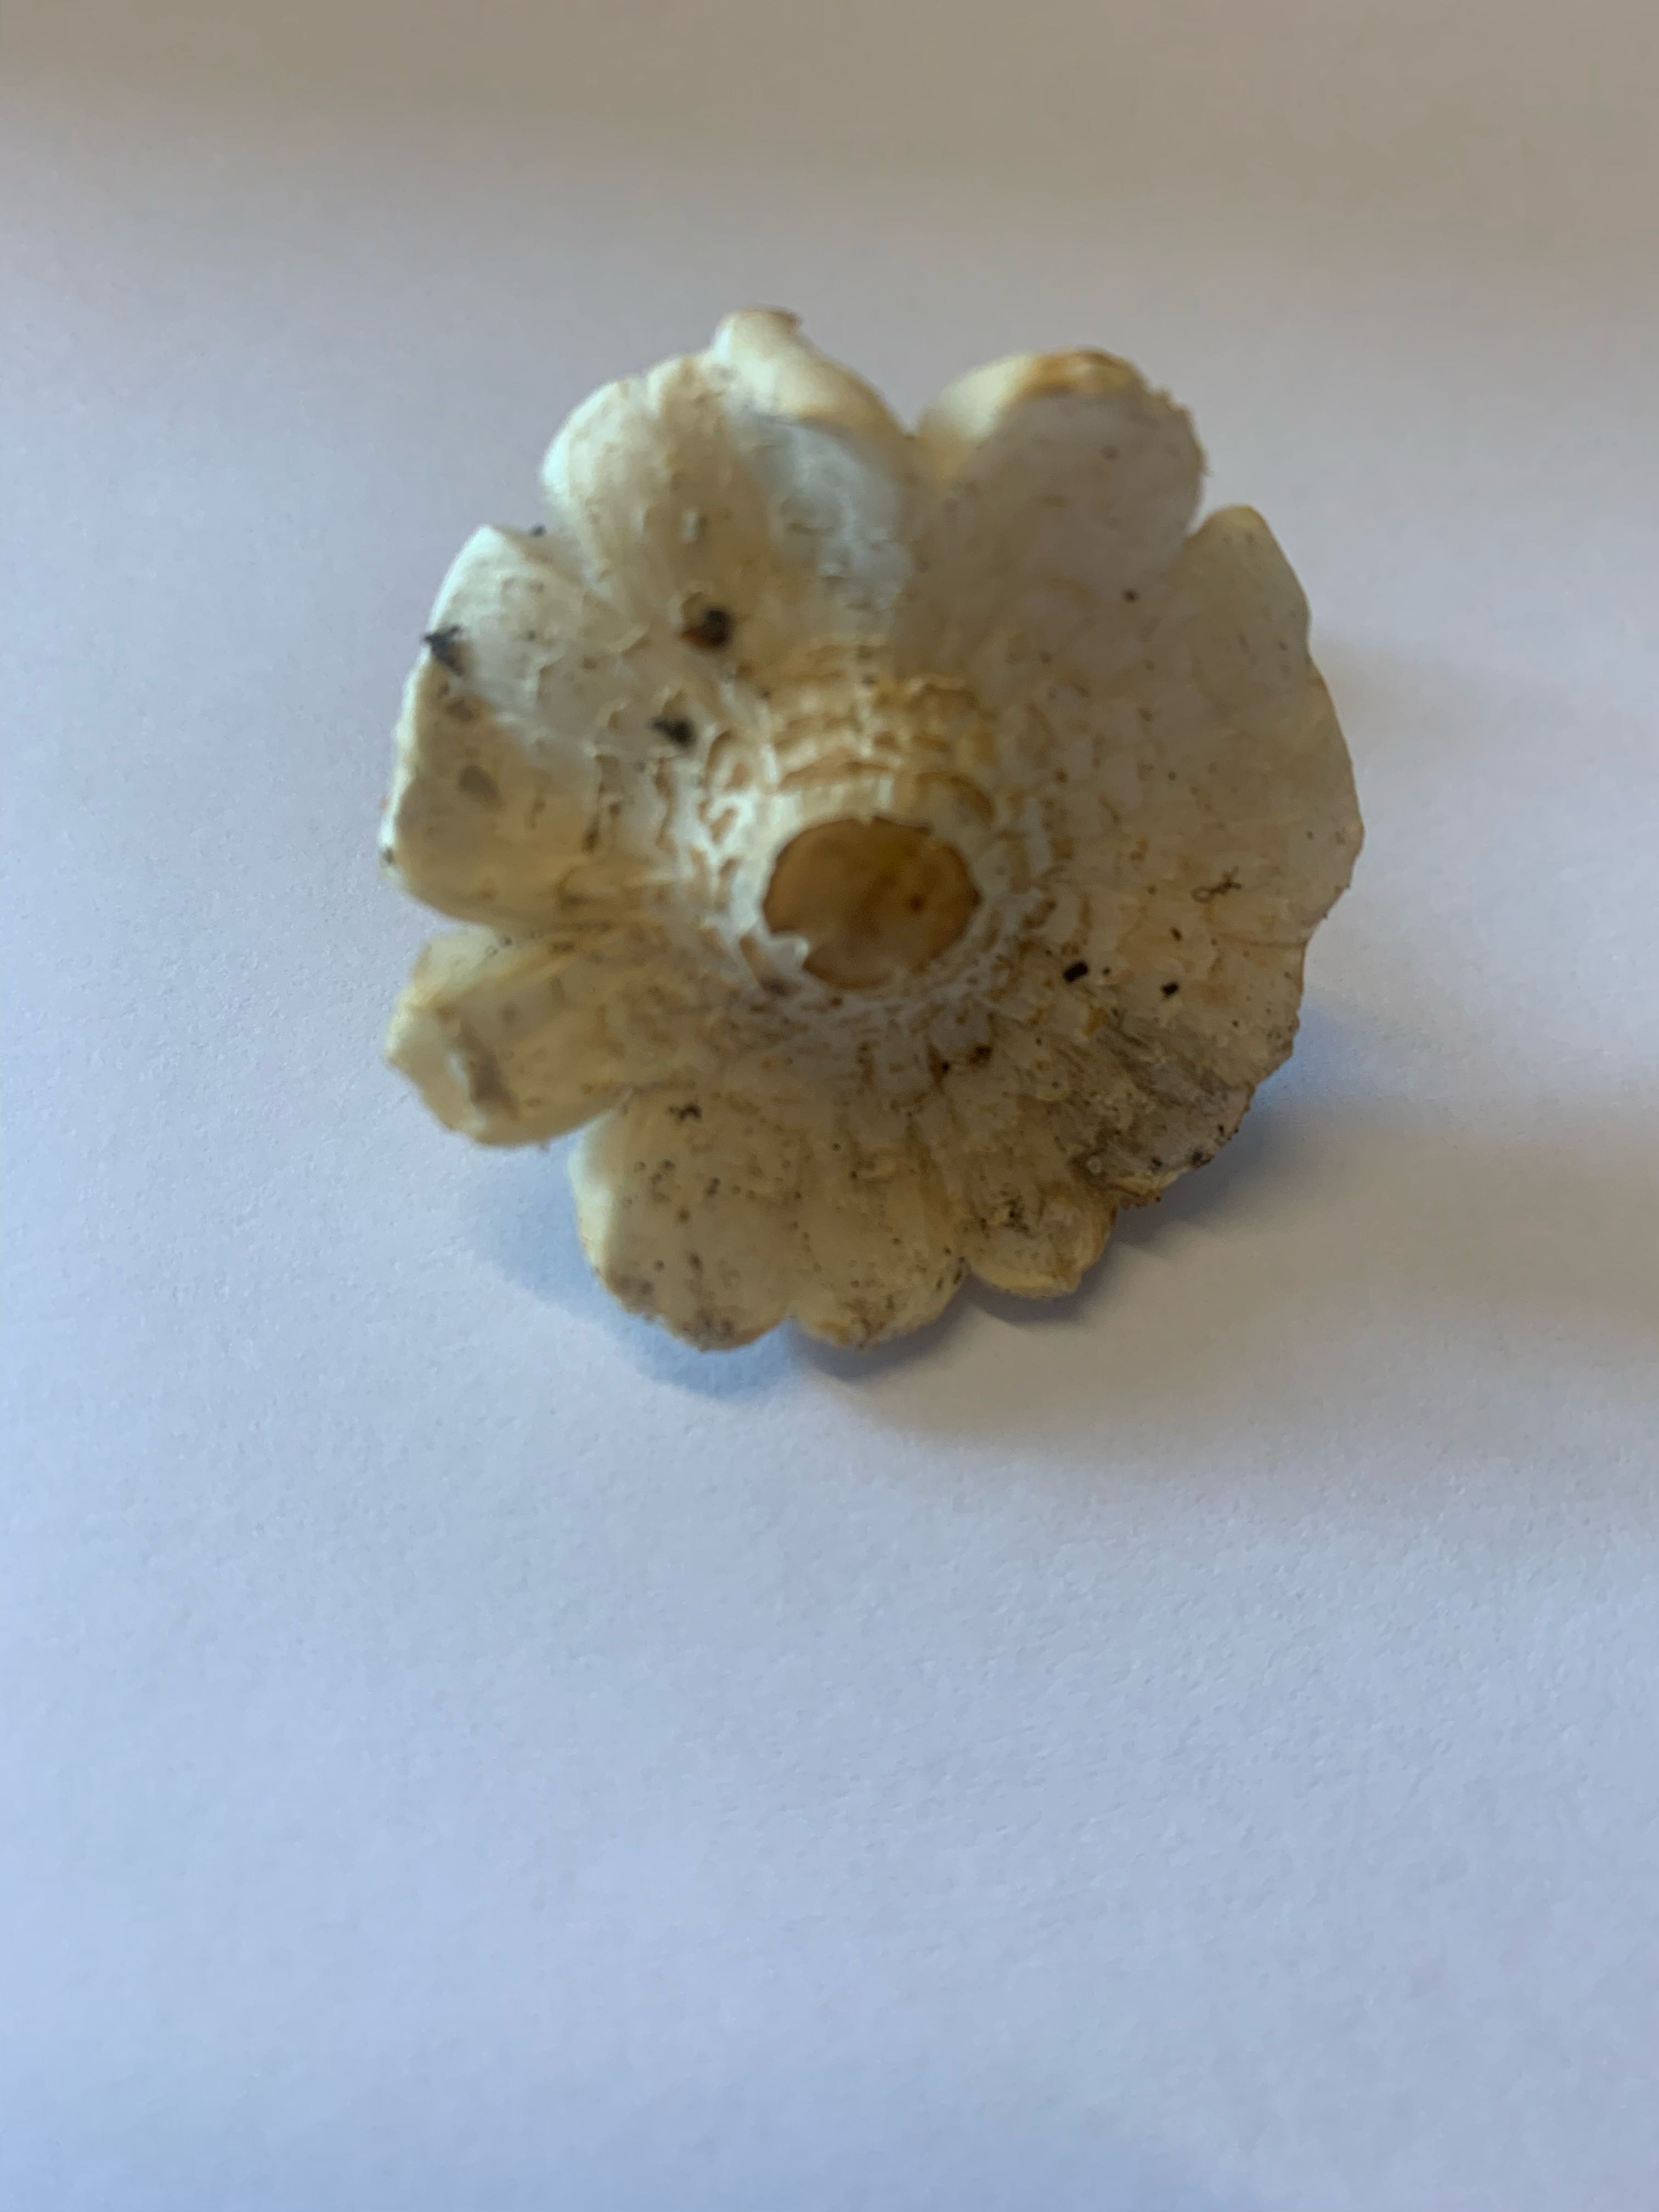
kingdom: Fungi
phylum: Basidiomycota
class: Agaricomycetes
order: Agaricales
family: Agaricaceae
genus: Lepiota
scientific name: Lepiota cristata
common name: stinkende parasolhat
